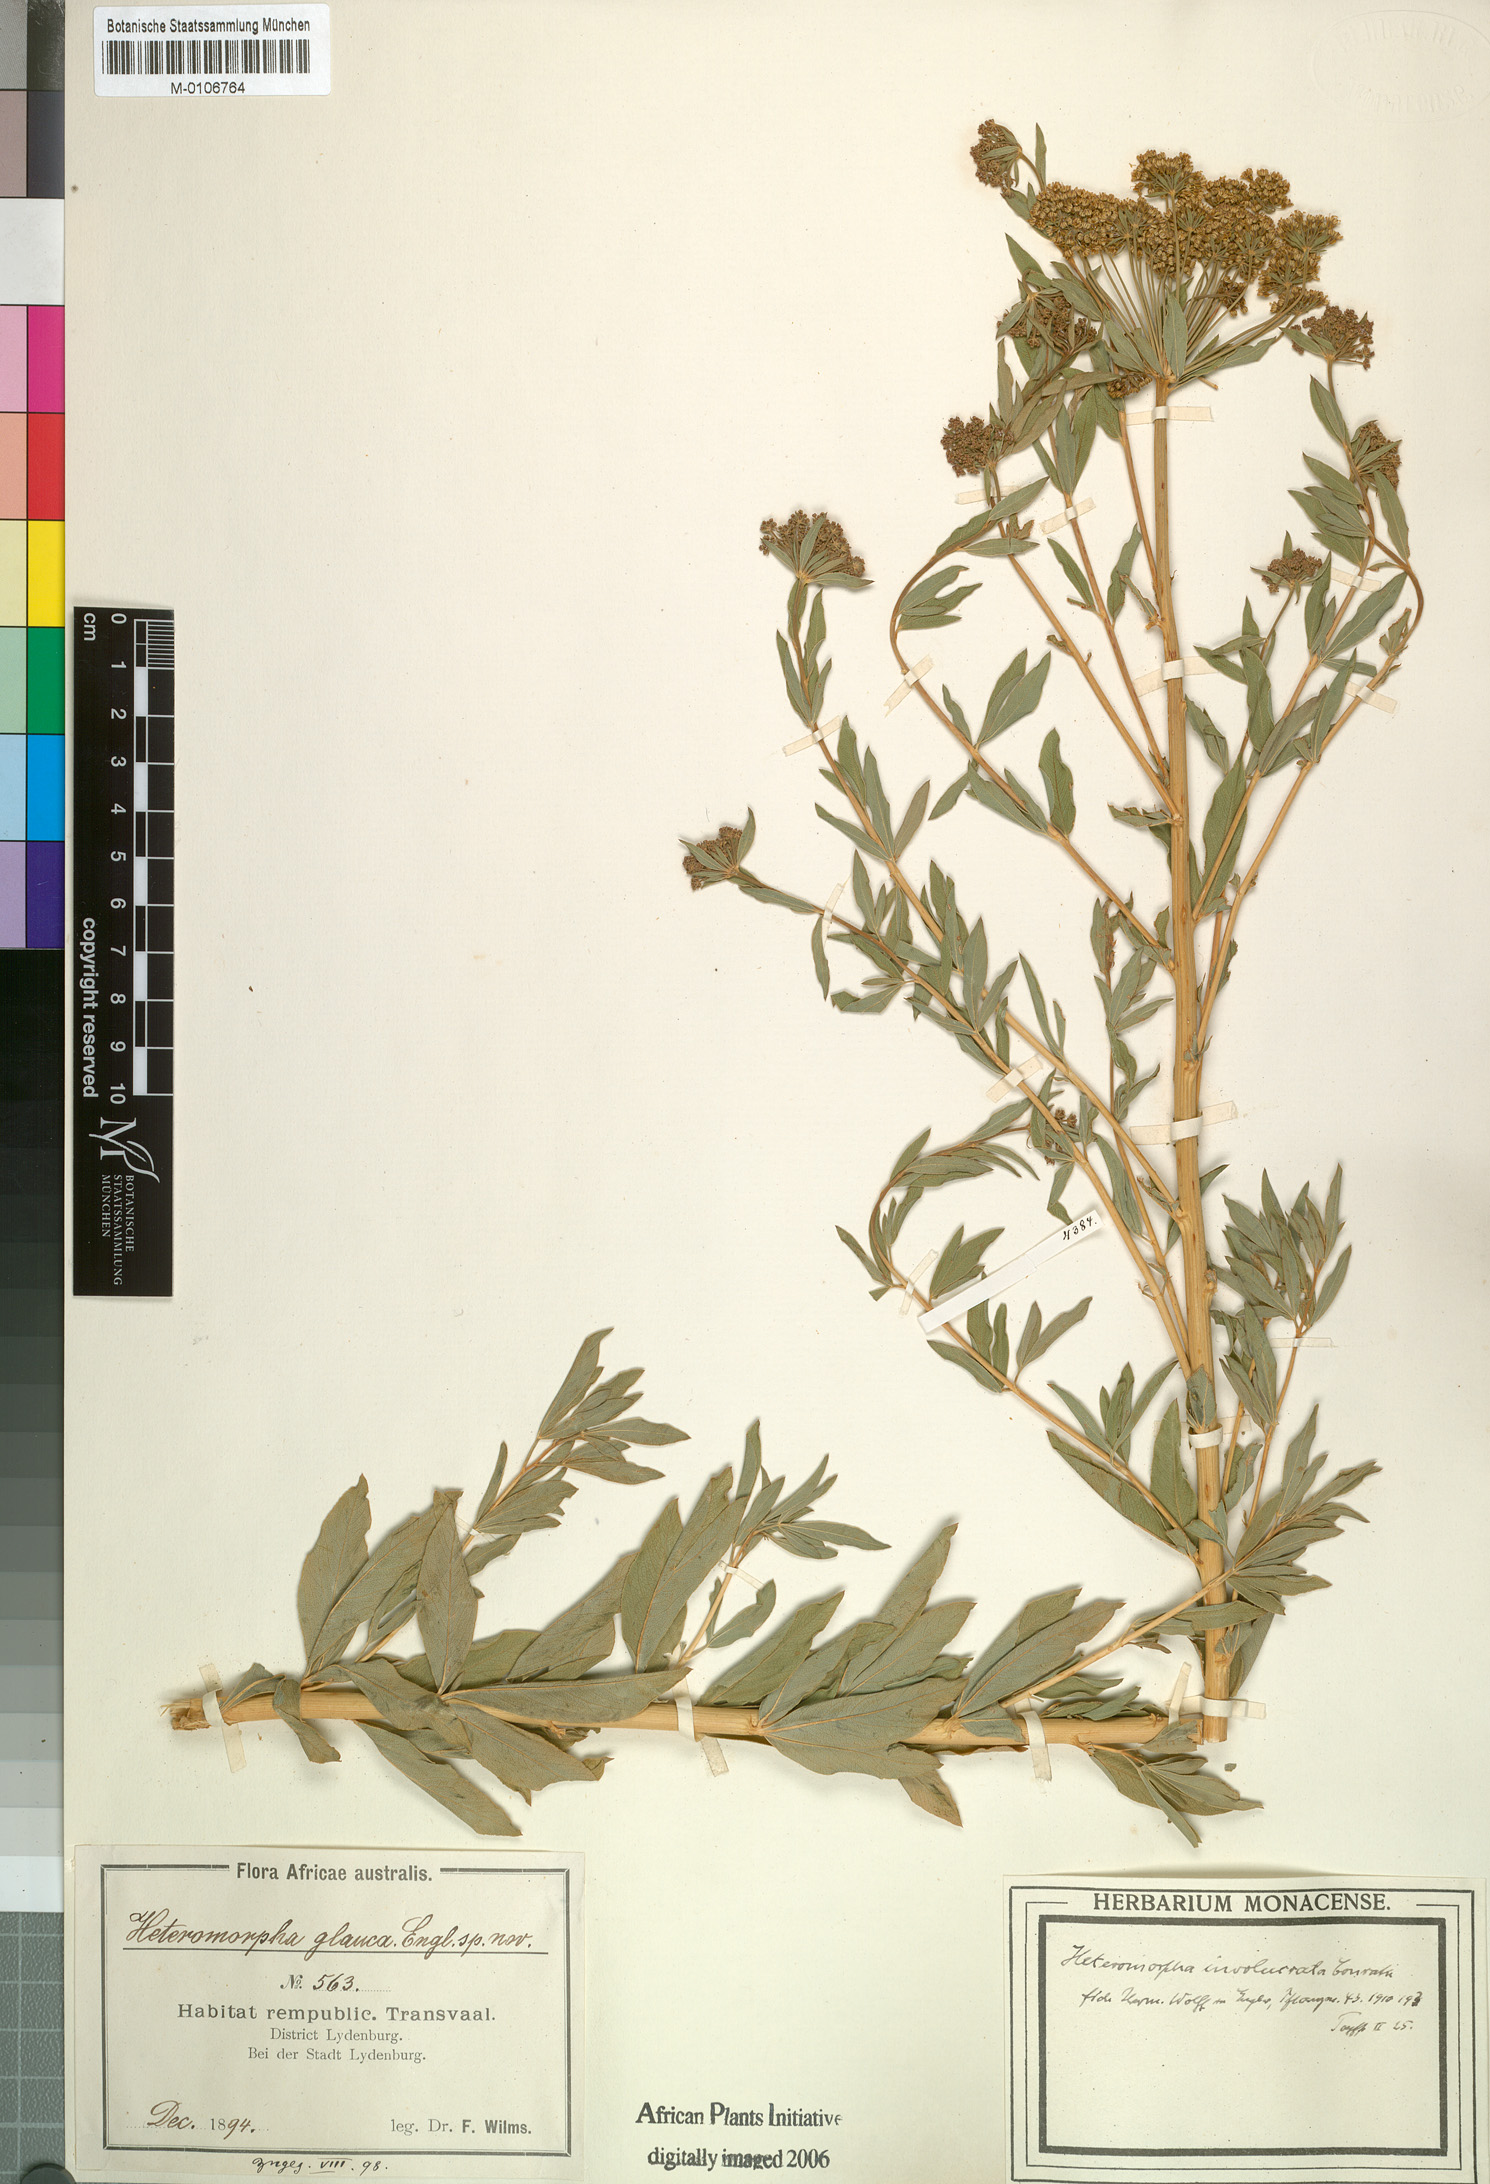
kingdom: Plantae
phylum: Tracheophyta
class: Magnoliopsida
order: Apiales
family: Apiaceae
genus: Heteromorpha
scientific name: Heteromorpha involucrata
